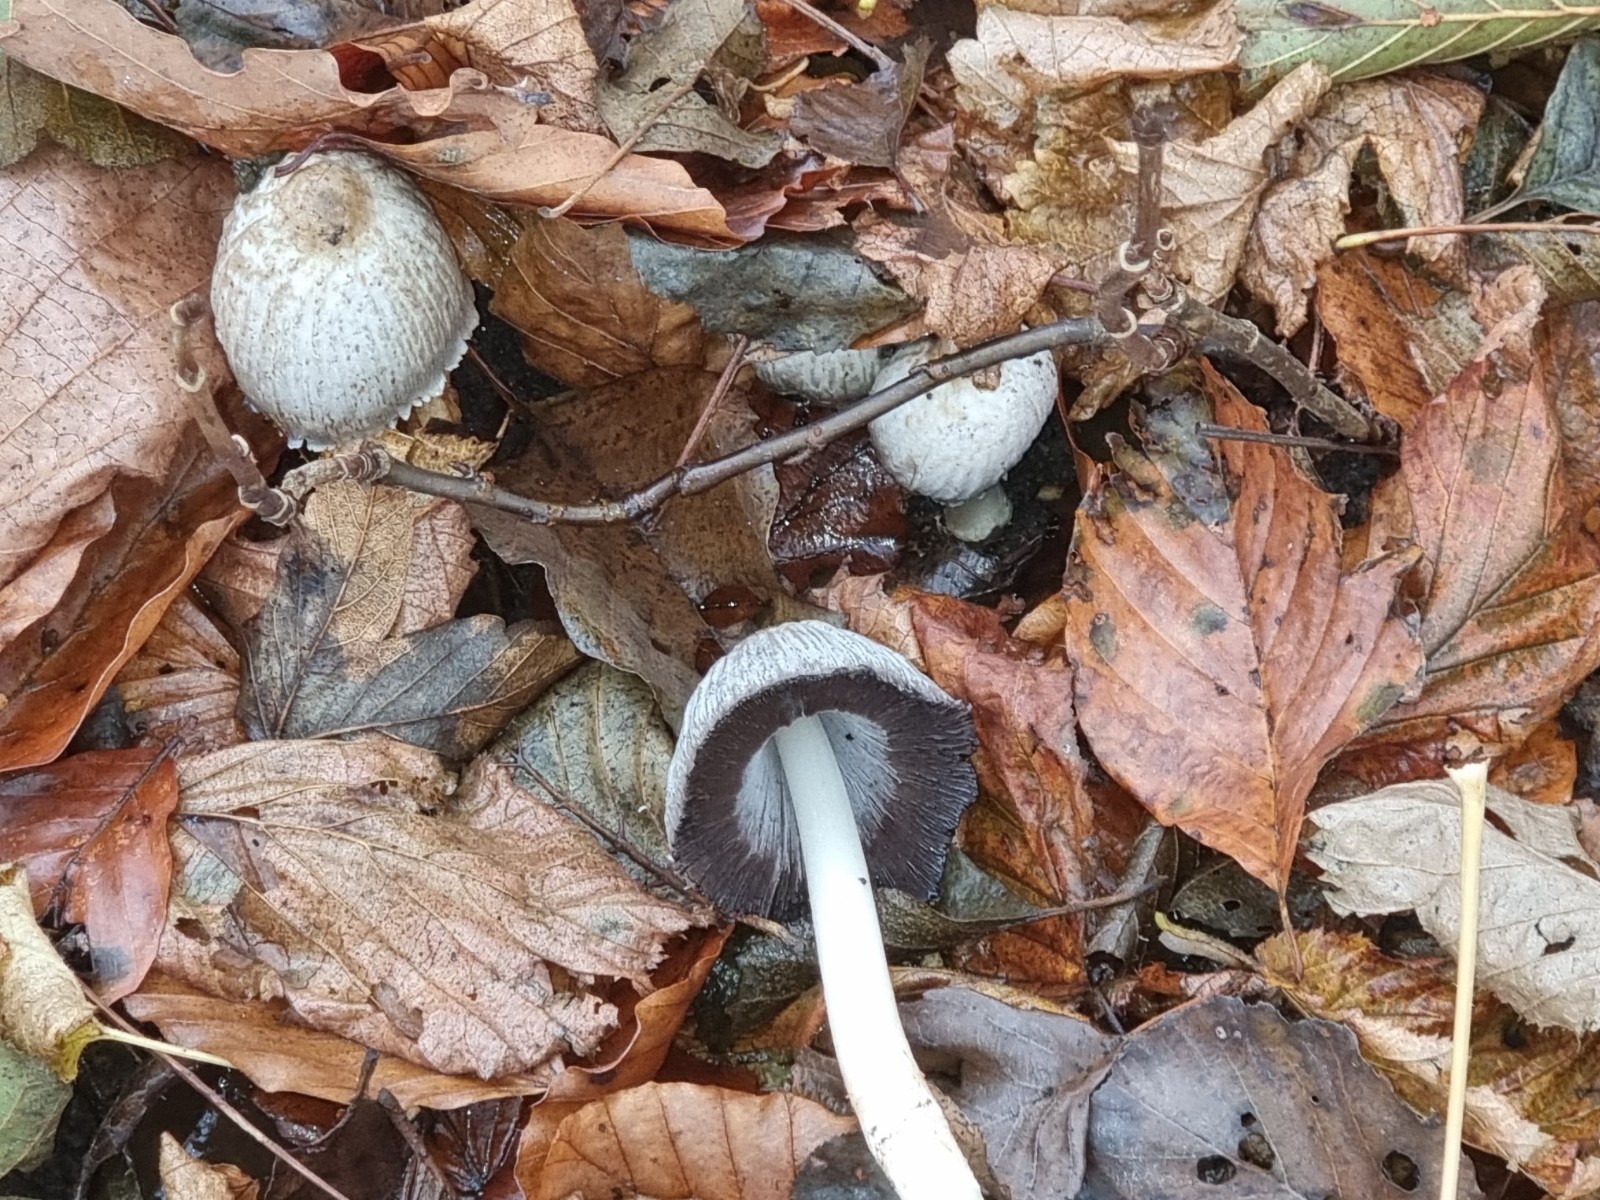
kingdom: Fungi
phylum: Basidiomycota
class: Agaricomycetes
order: Agaricales
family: Psathyrellaceae
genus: Coprinopsis
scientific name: Coprinopsis atramentaria
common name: almindelig blækhat
